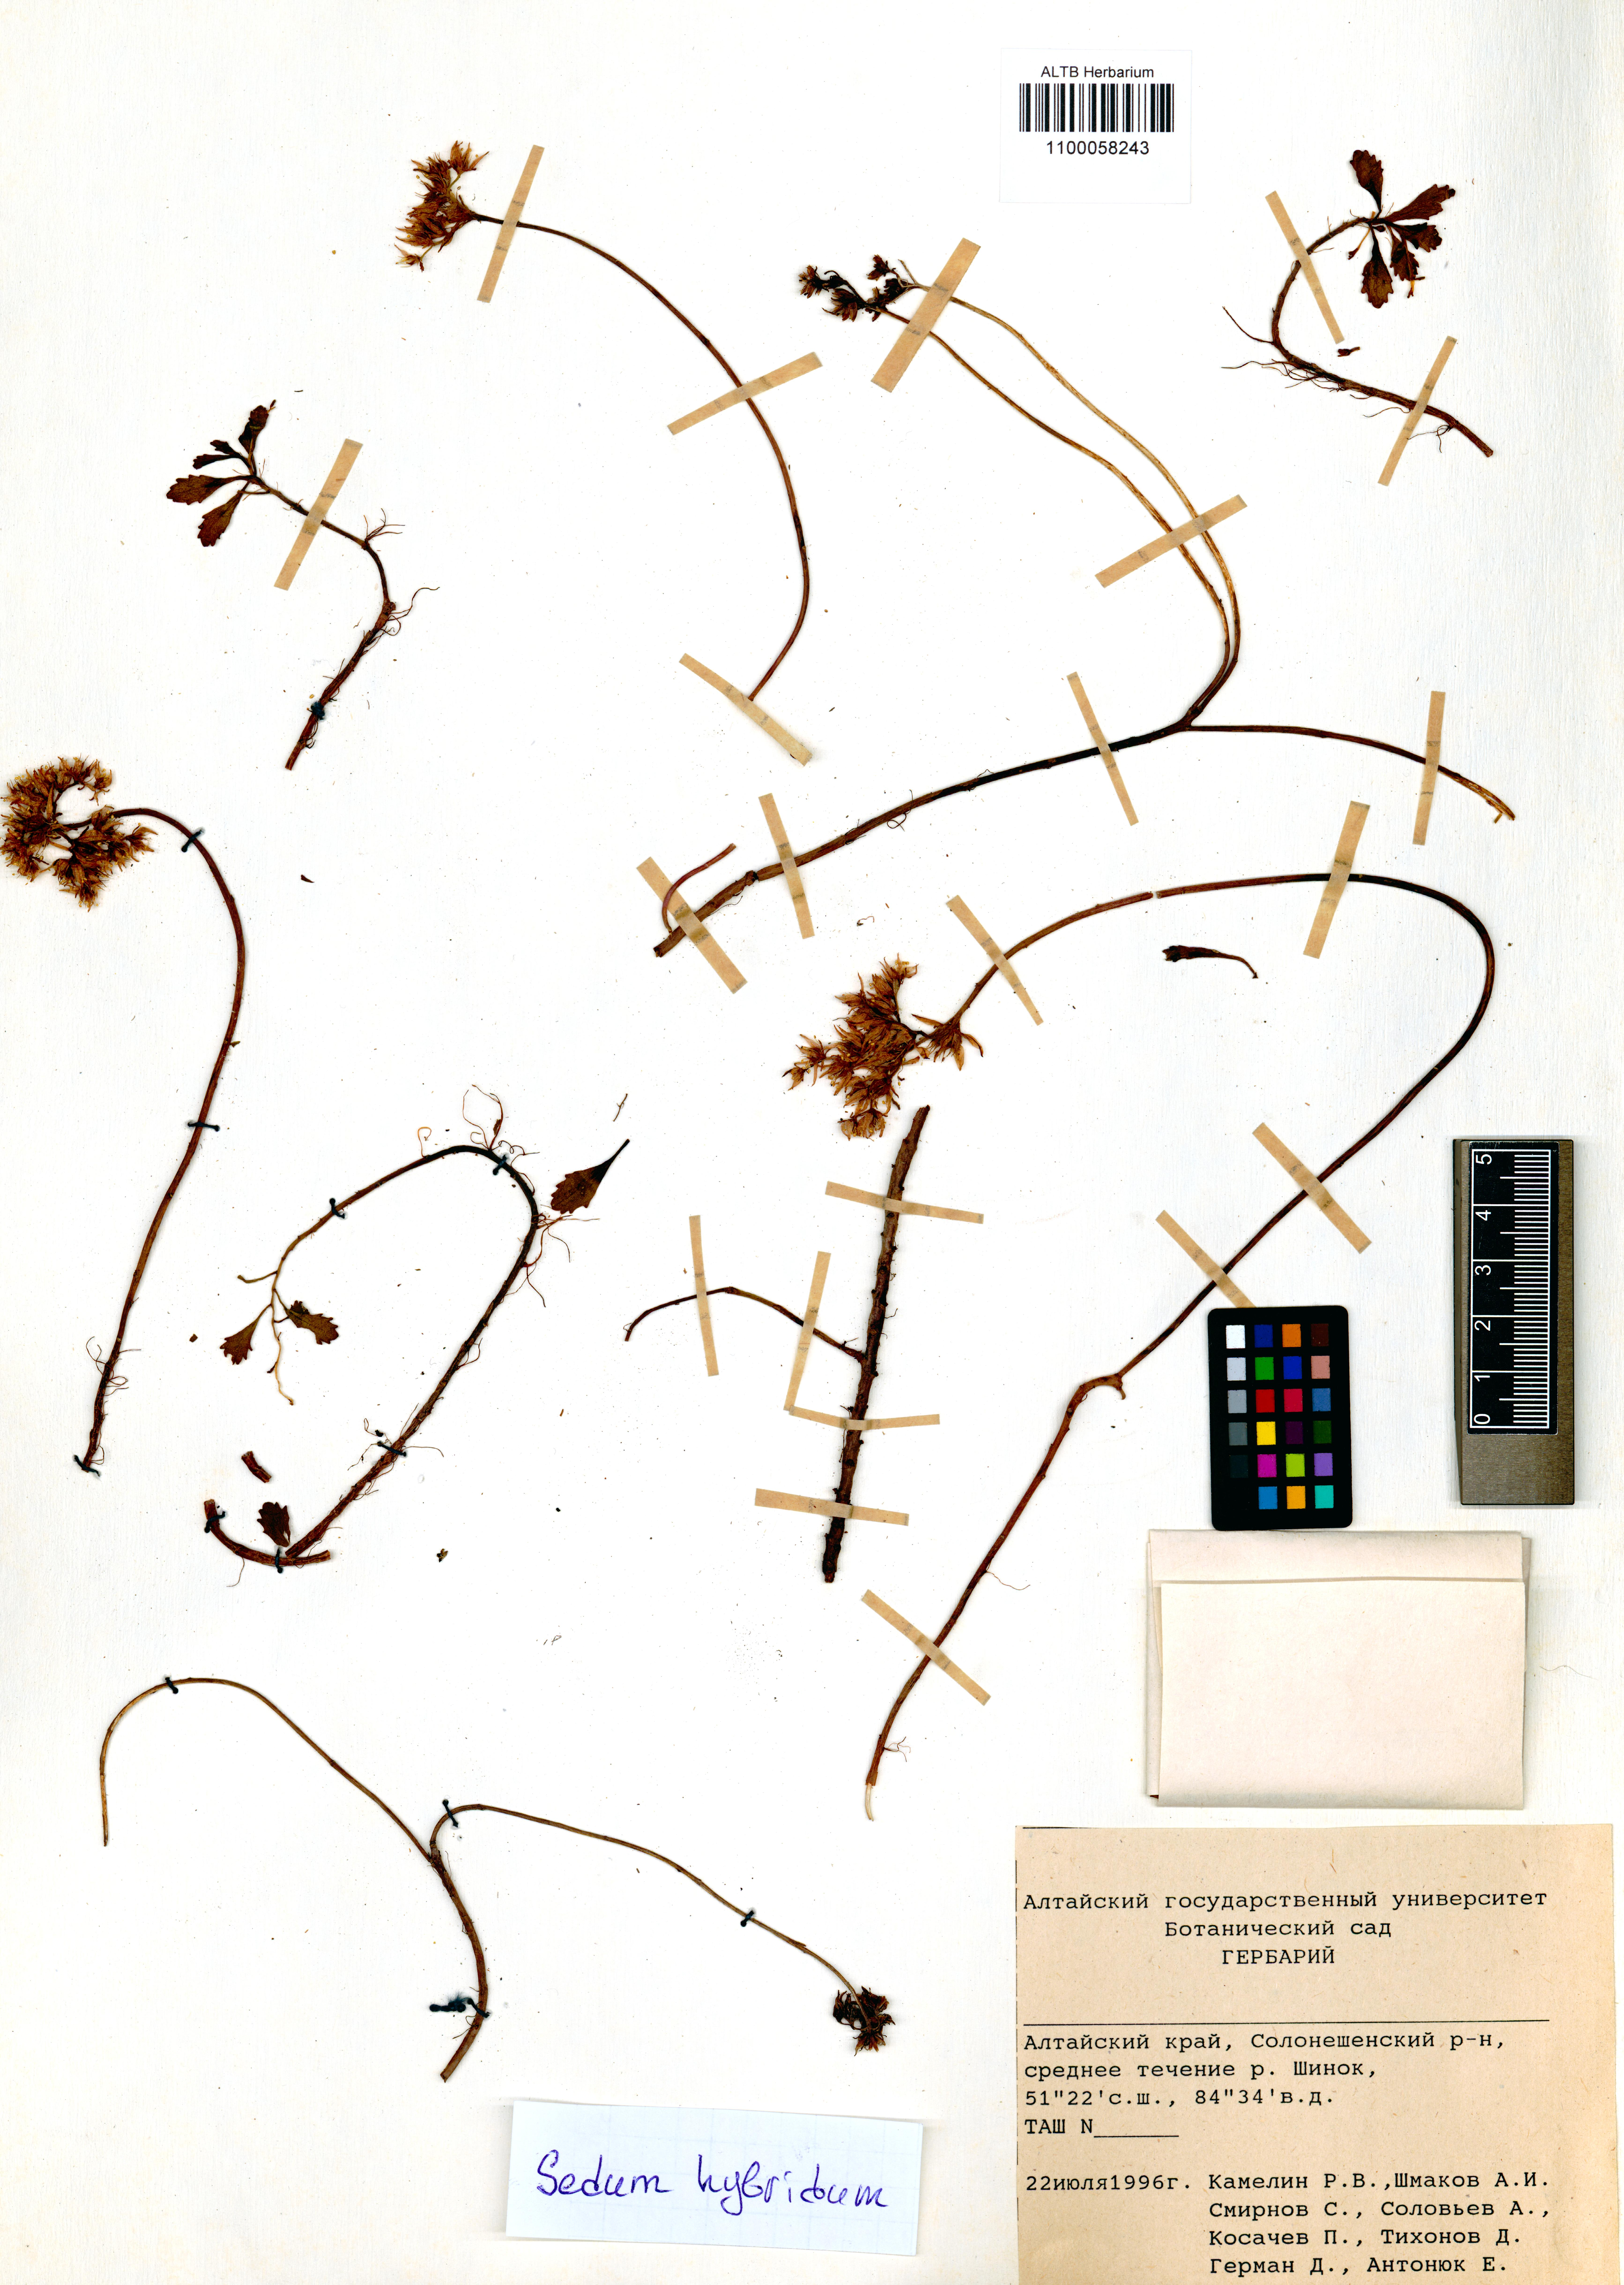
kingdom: Plantae
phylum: Tracheophyta
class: Magnoliopsida
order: Saxifragales
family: Crassulaceae
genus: Phedimus
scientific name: Phedimus hybridus
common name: Hybrid stonecrop
